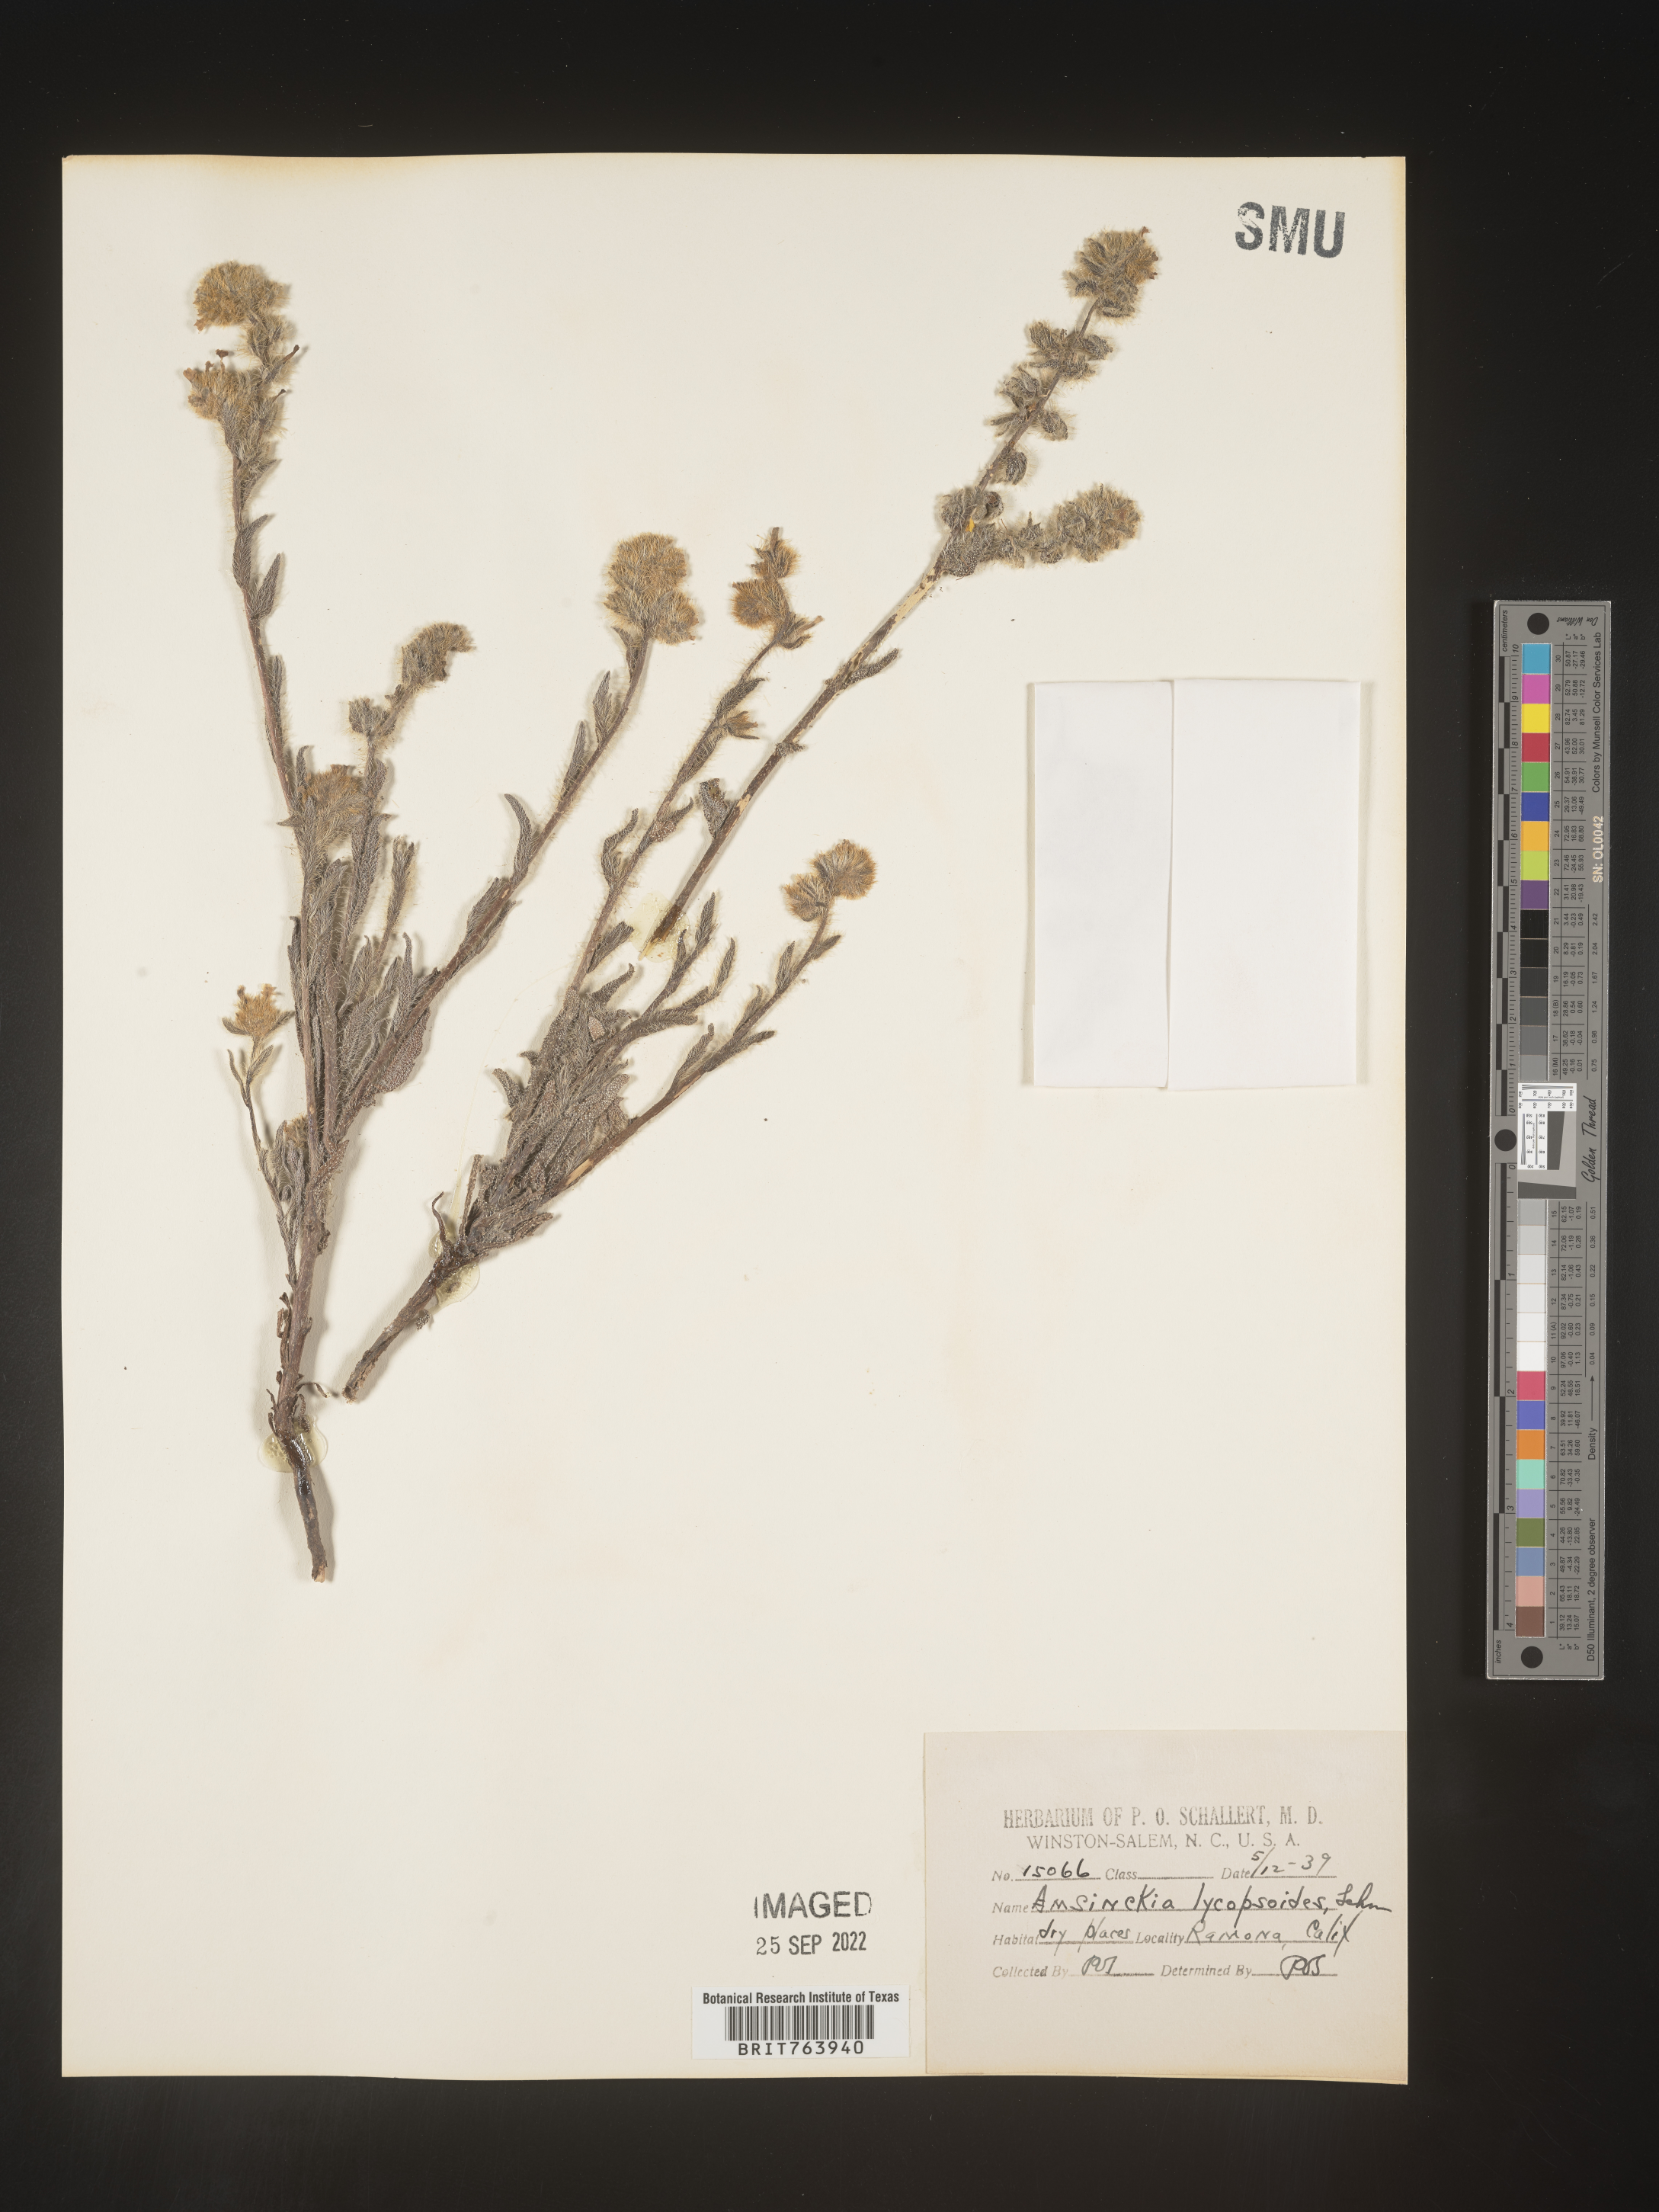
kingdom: Plantae
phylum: Tracheophyta
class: Magnoliopsida
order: Boraginales
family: Boraginaceae
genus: Amsinckia
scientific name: Amsinckia
